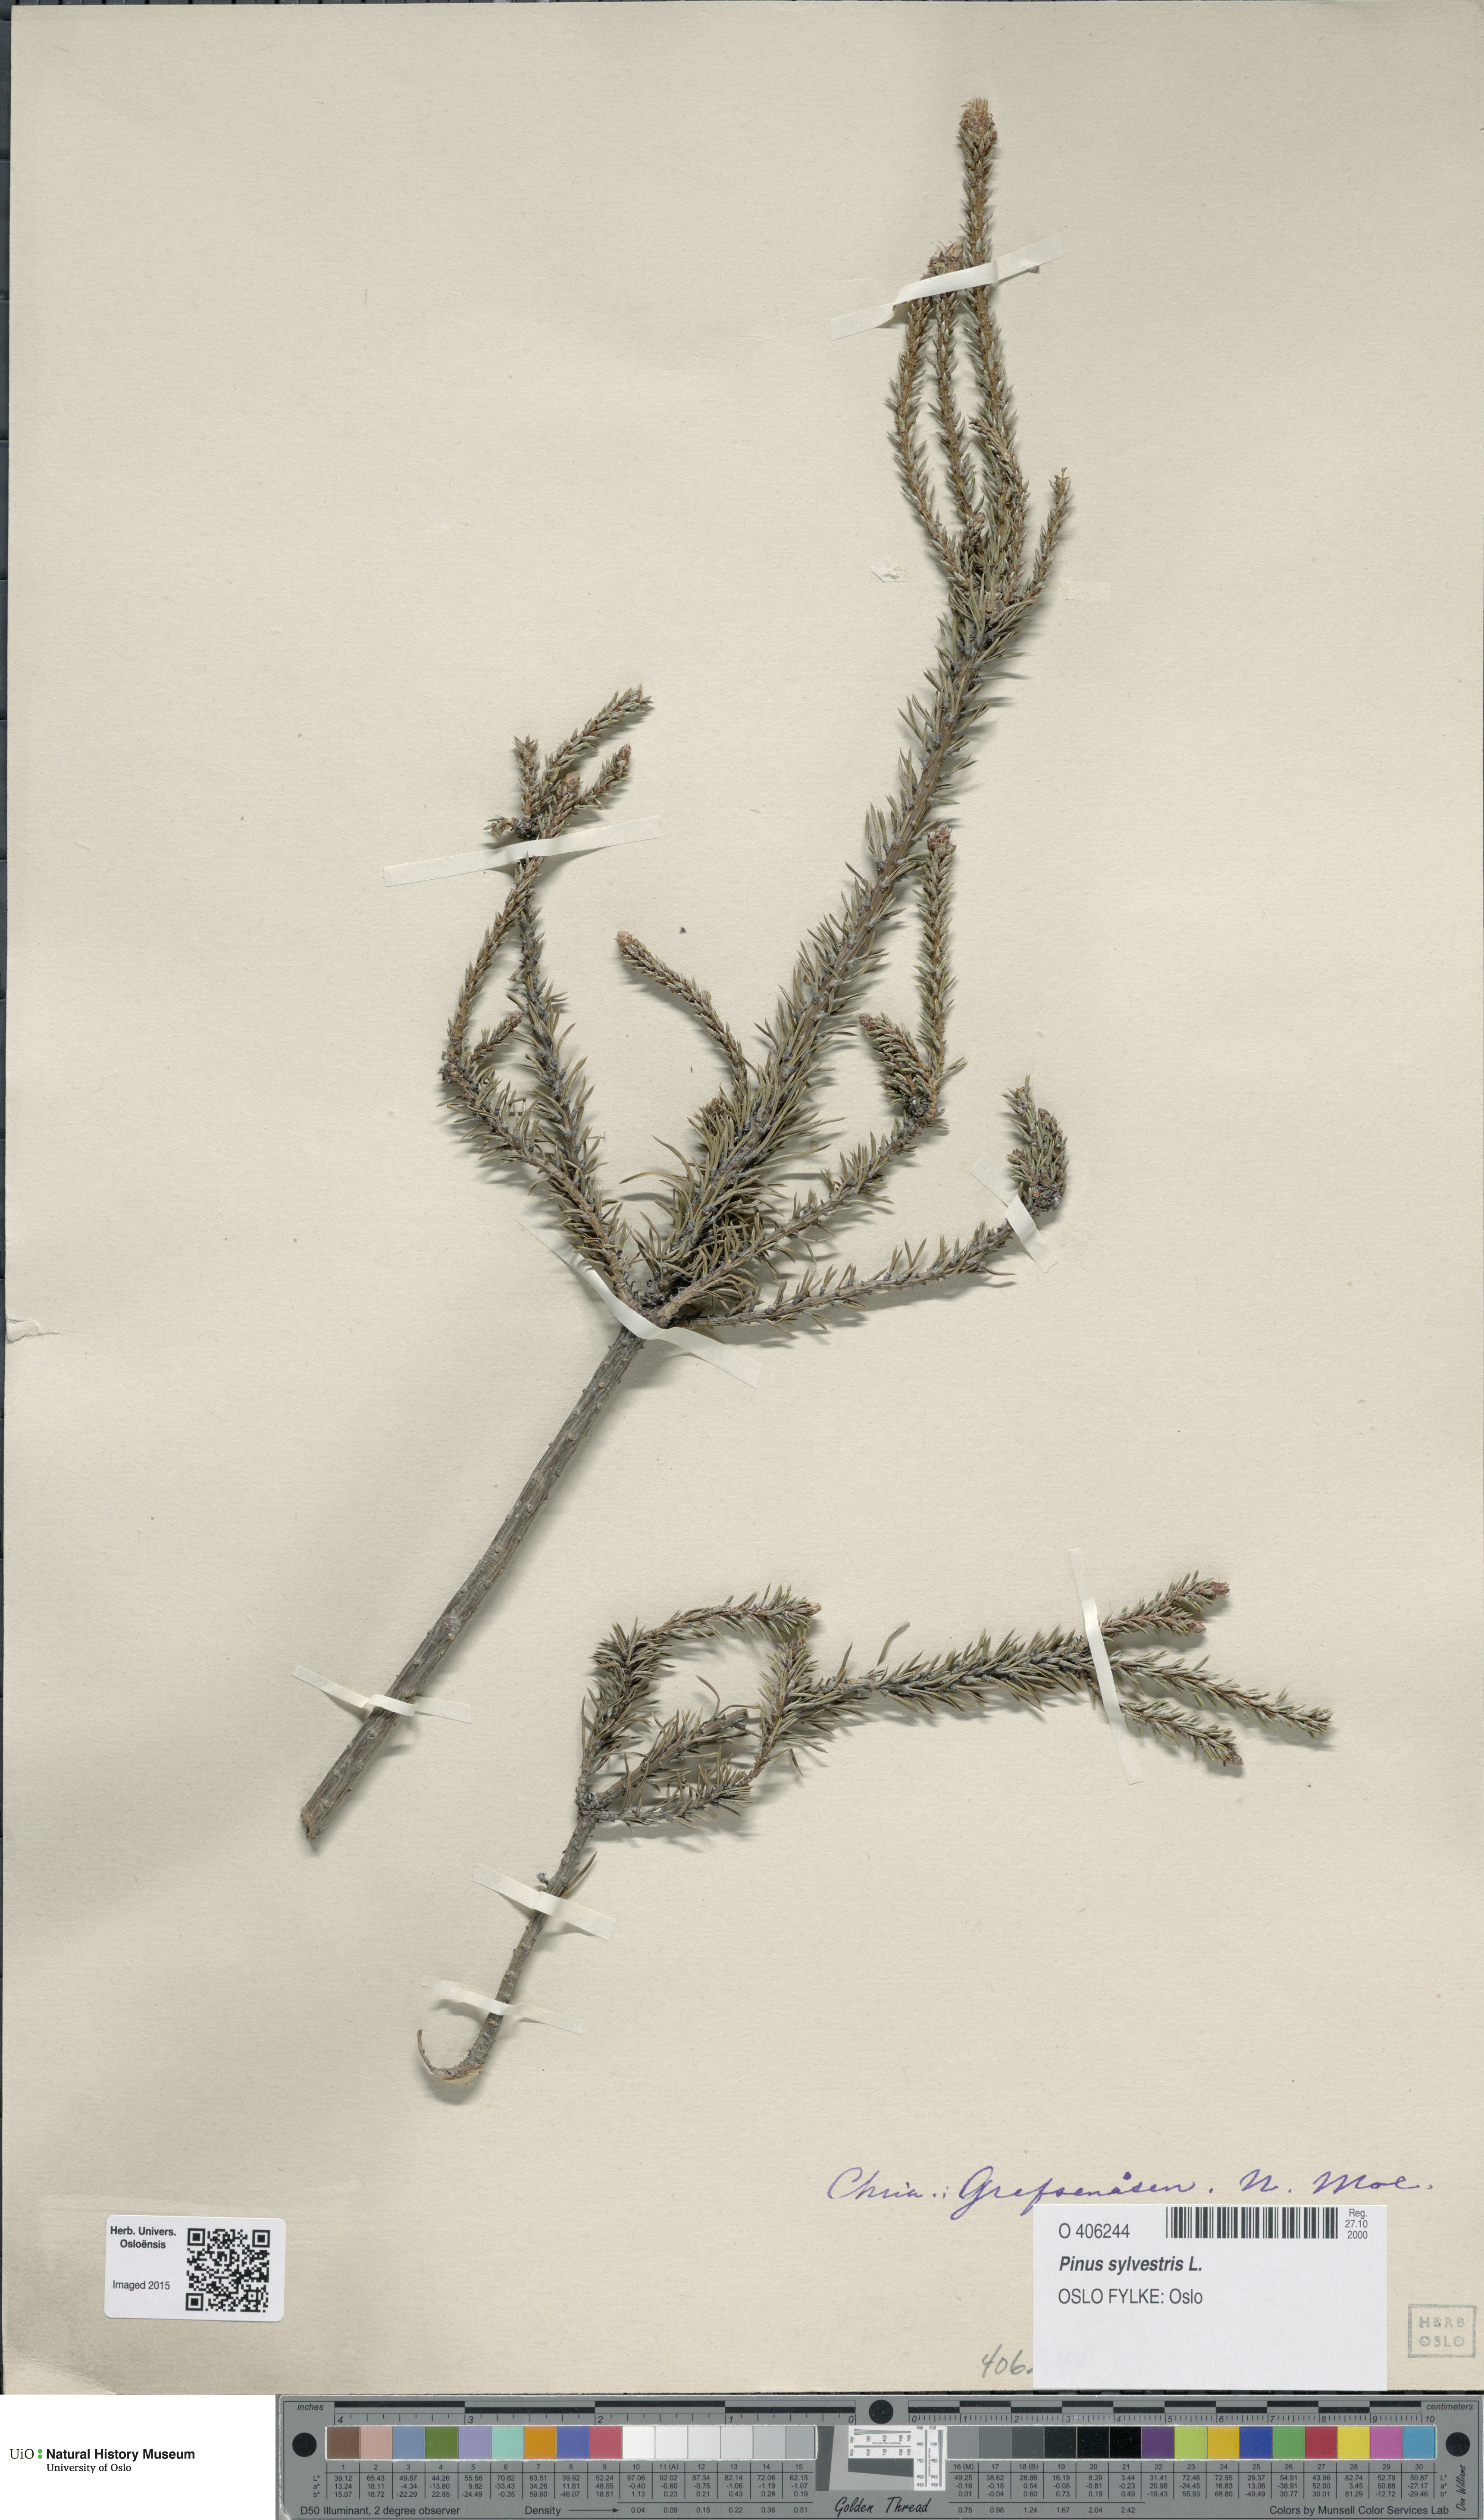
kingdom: Plantae
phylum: Tracheophyta
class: Pinopsida
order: Pinales
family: Pinaceae
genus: Pinus
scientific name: Pinus sylvestris
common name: Scots pine
